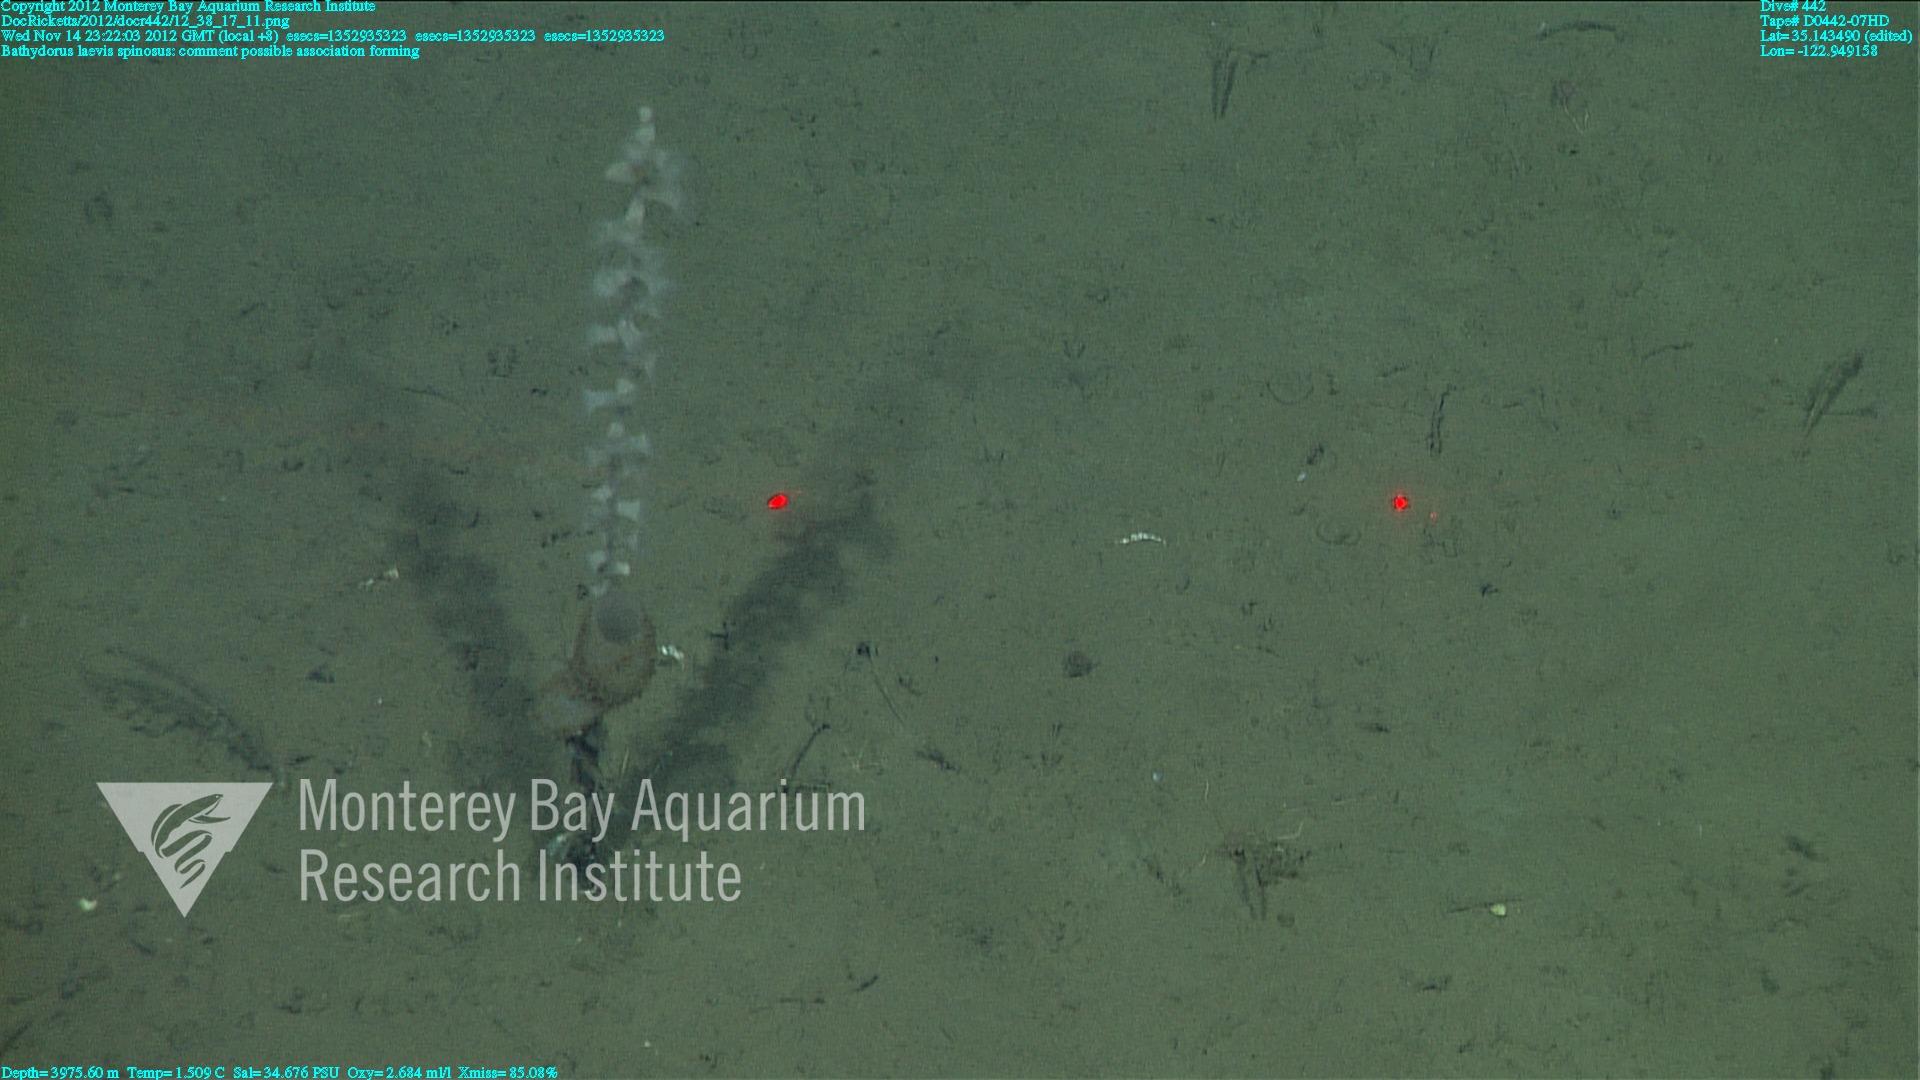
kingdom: Animalia
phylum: Porifera
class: Hexactinellida
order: Lyssacinosida
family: Rossellidae
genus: Bathydorus
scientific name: Bathydorus spinosus
